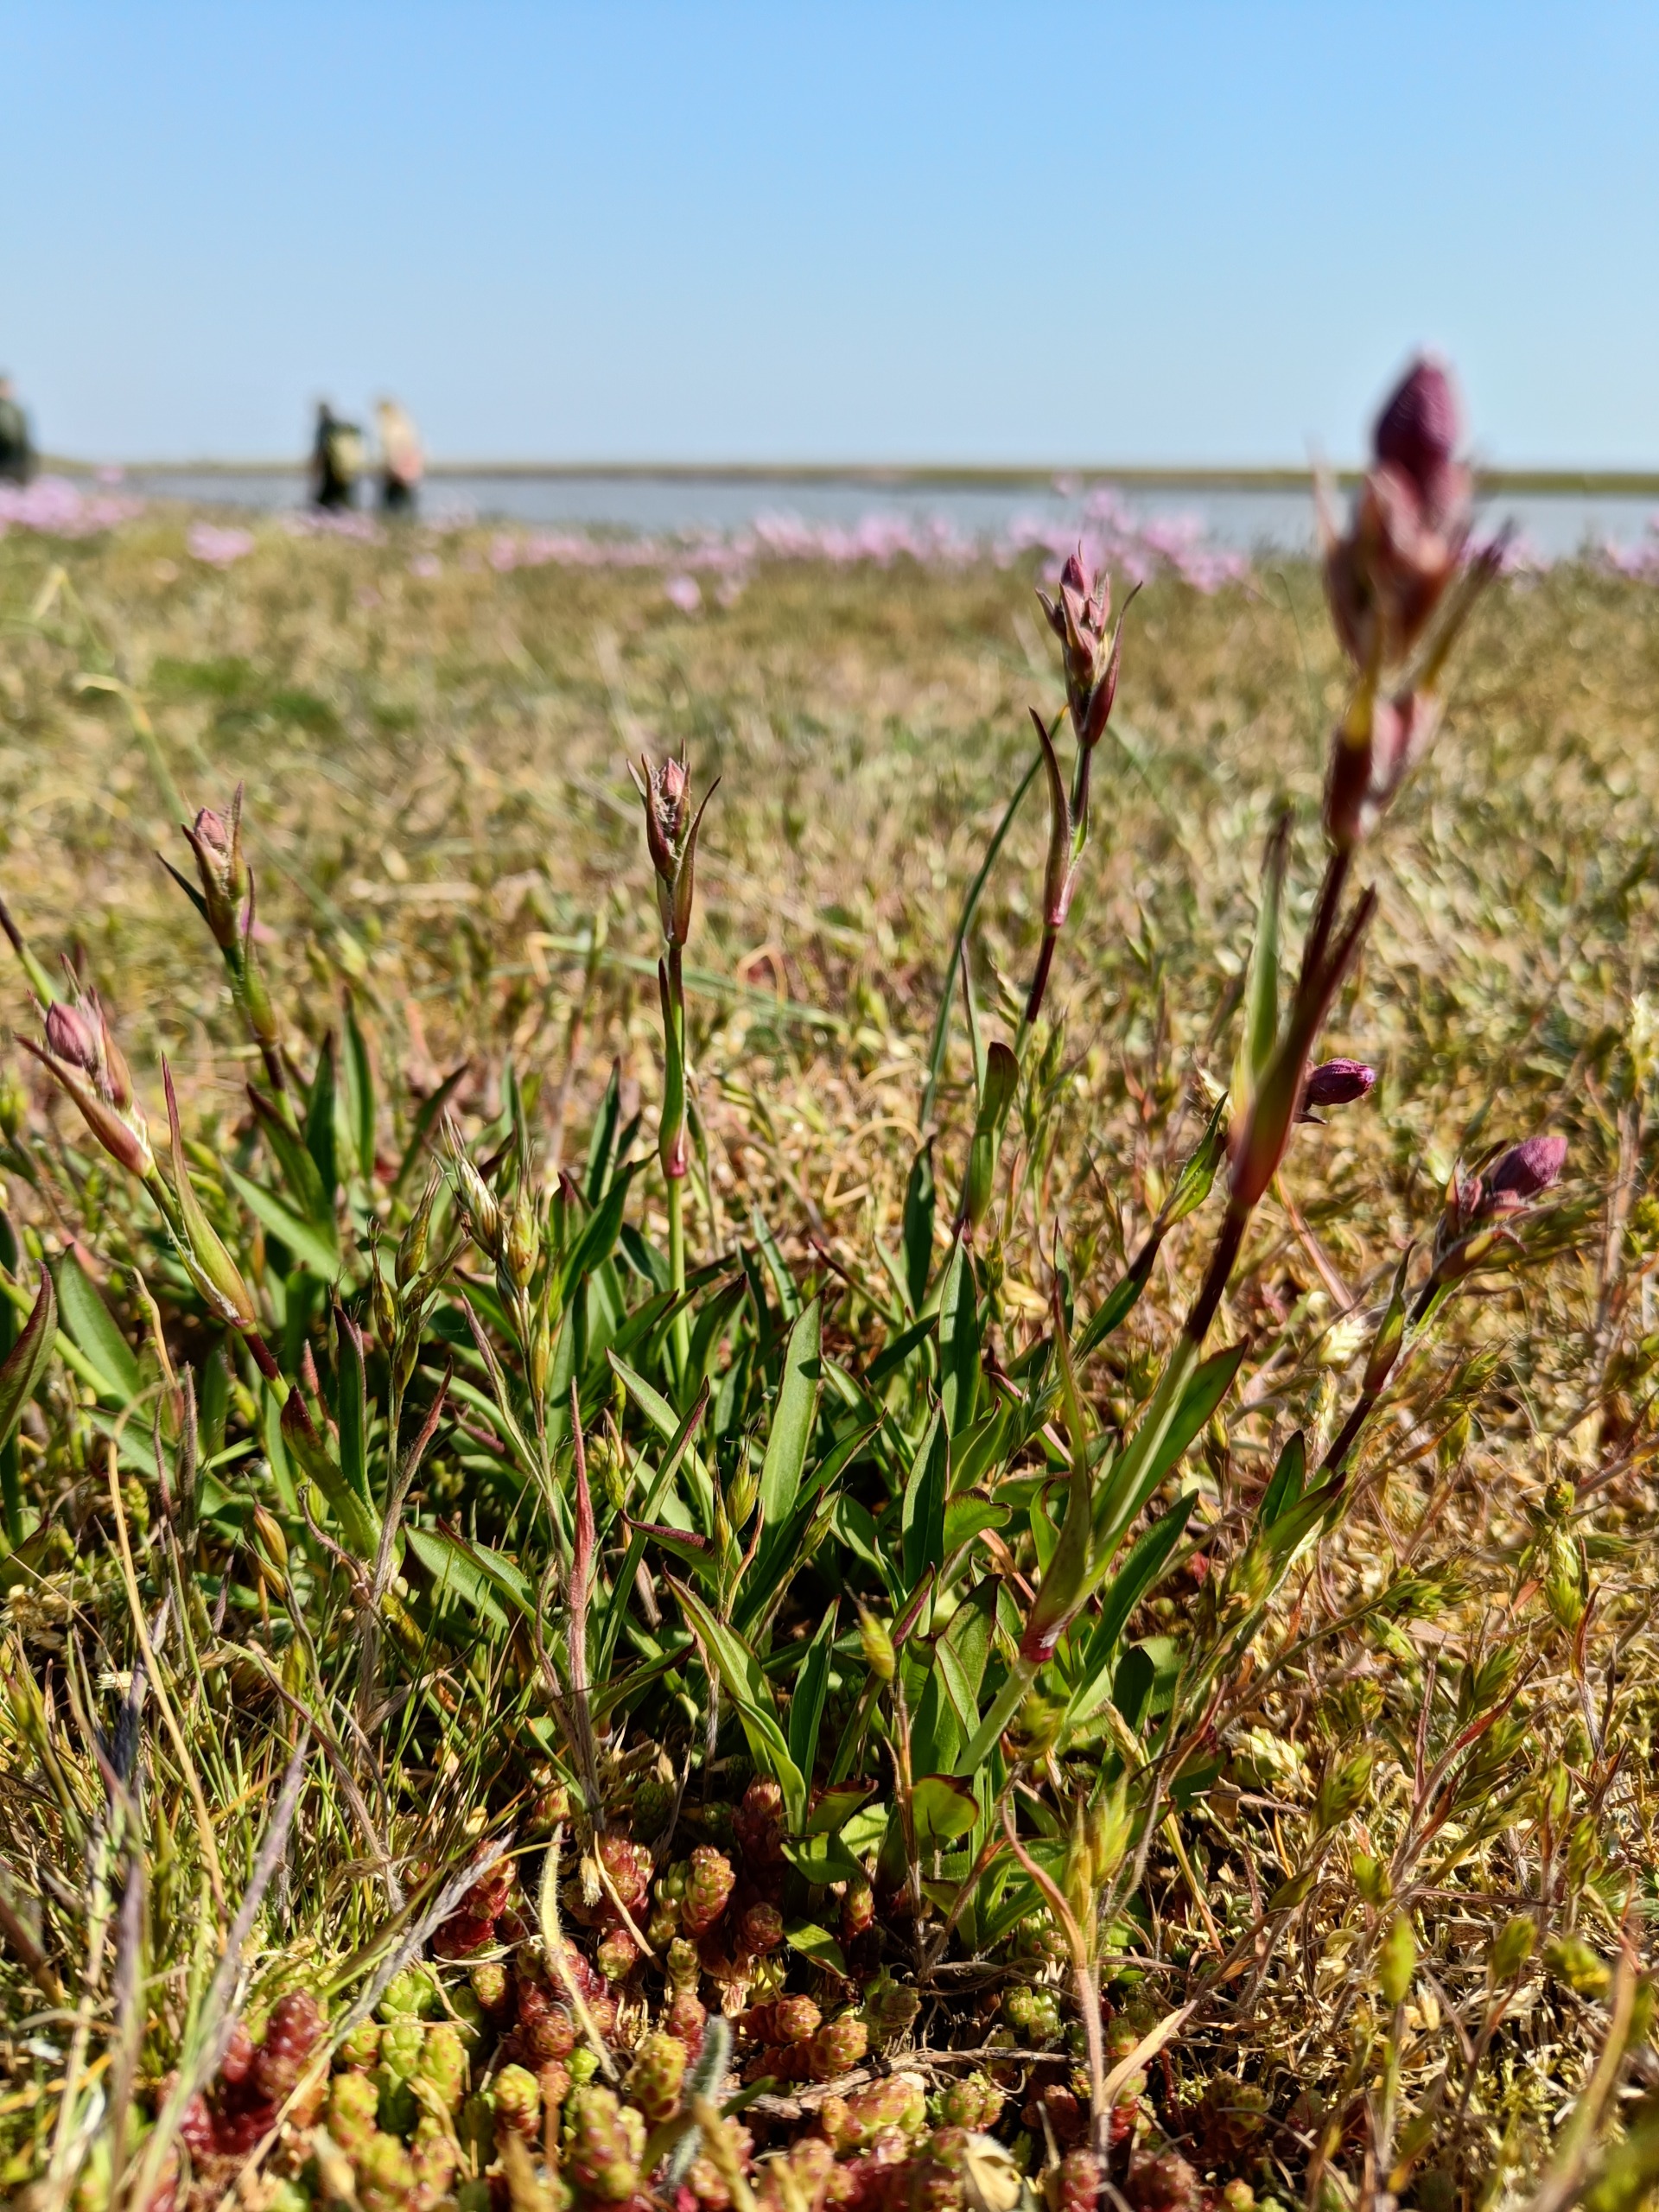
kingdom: Plantae
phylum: Tracheophyta
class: Magnoliopsida
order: Caryophyllales
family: Caryophyllaceae
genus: Viscaria
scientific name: Viscaria vulgaris
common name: Tjærenellike
